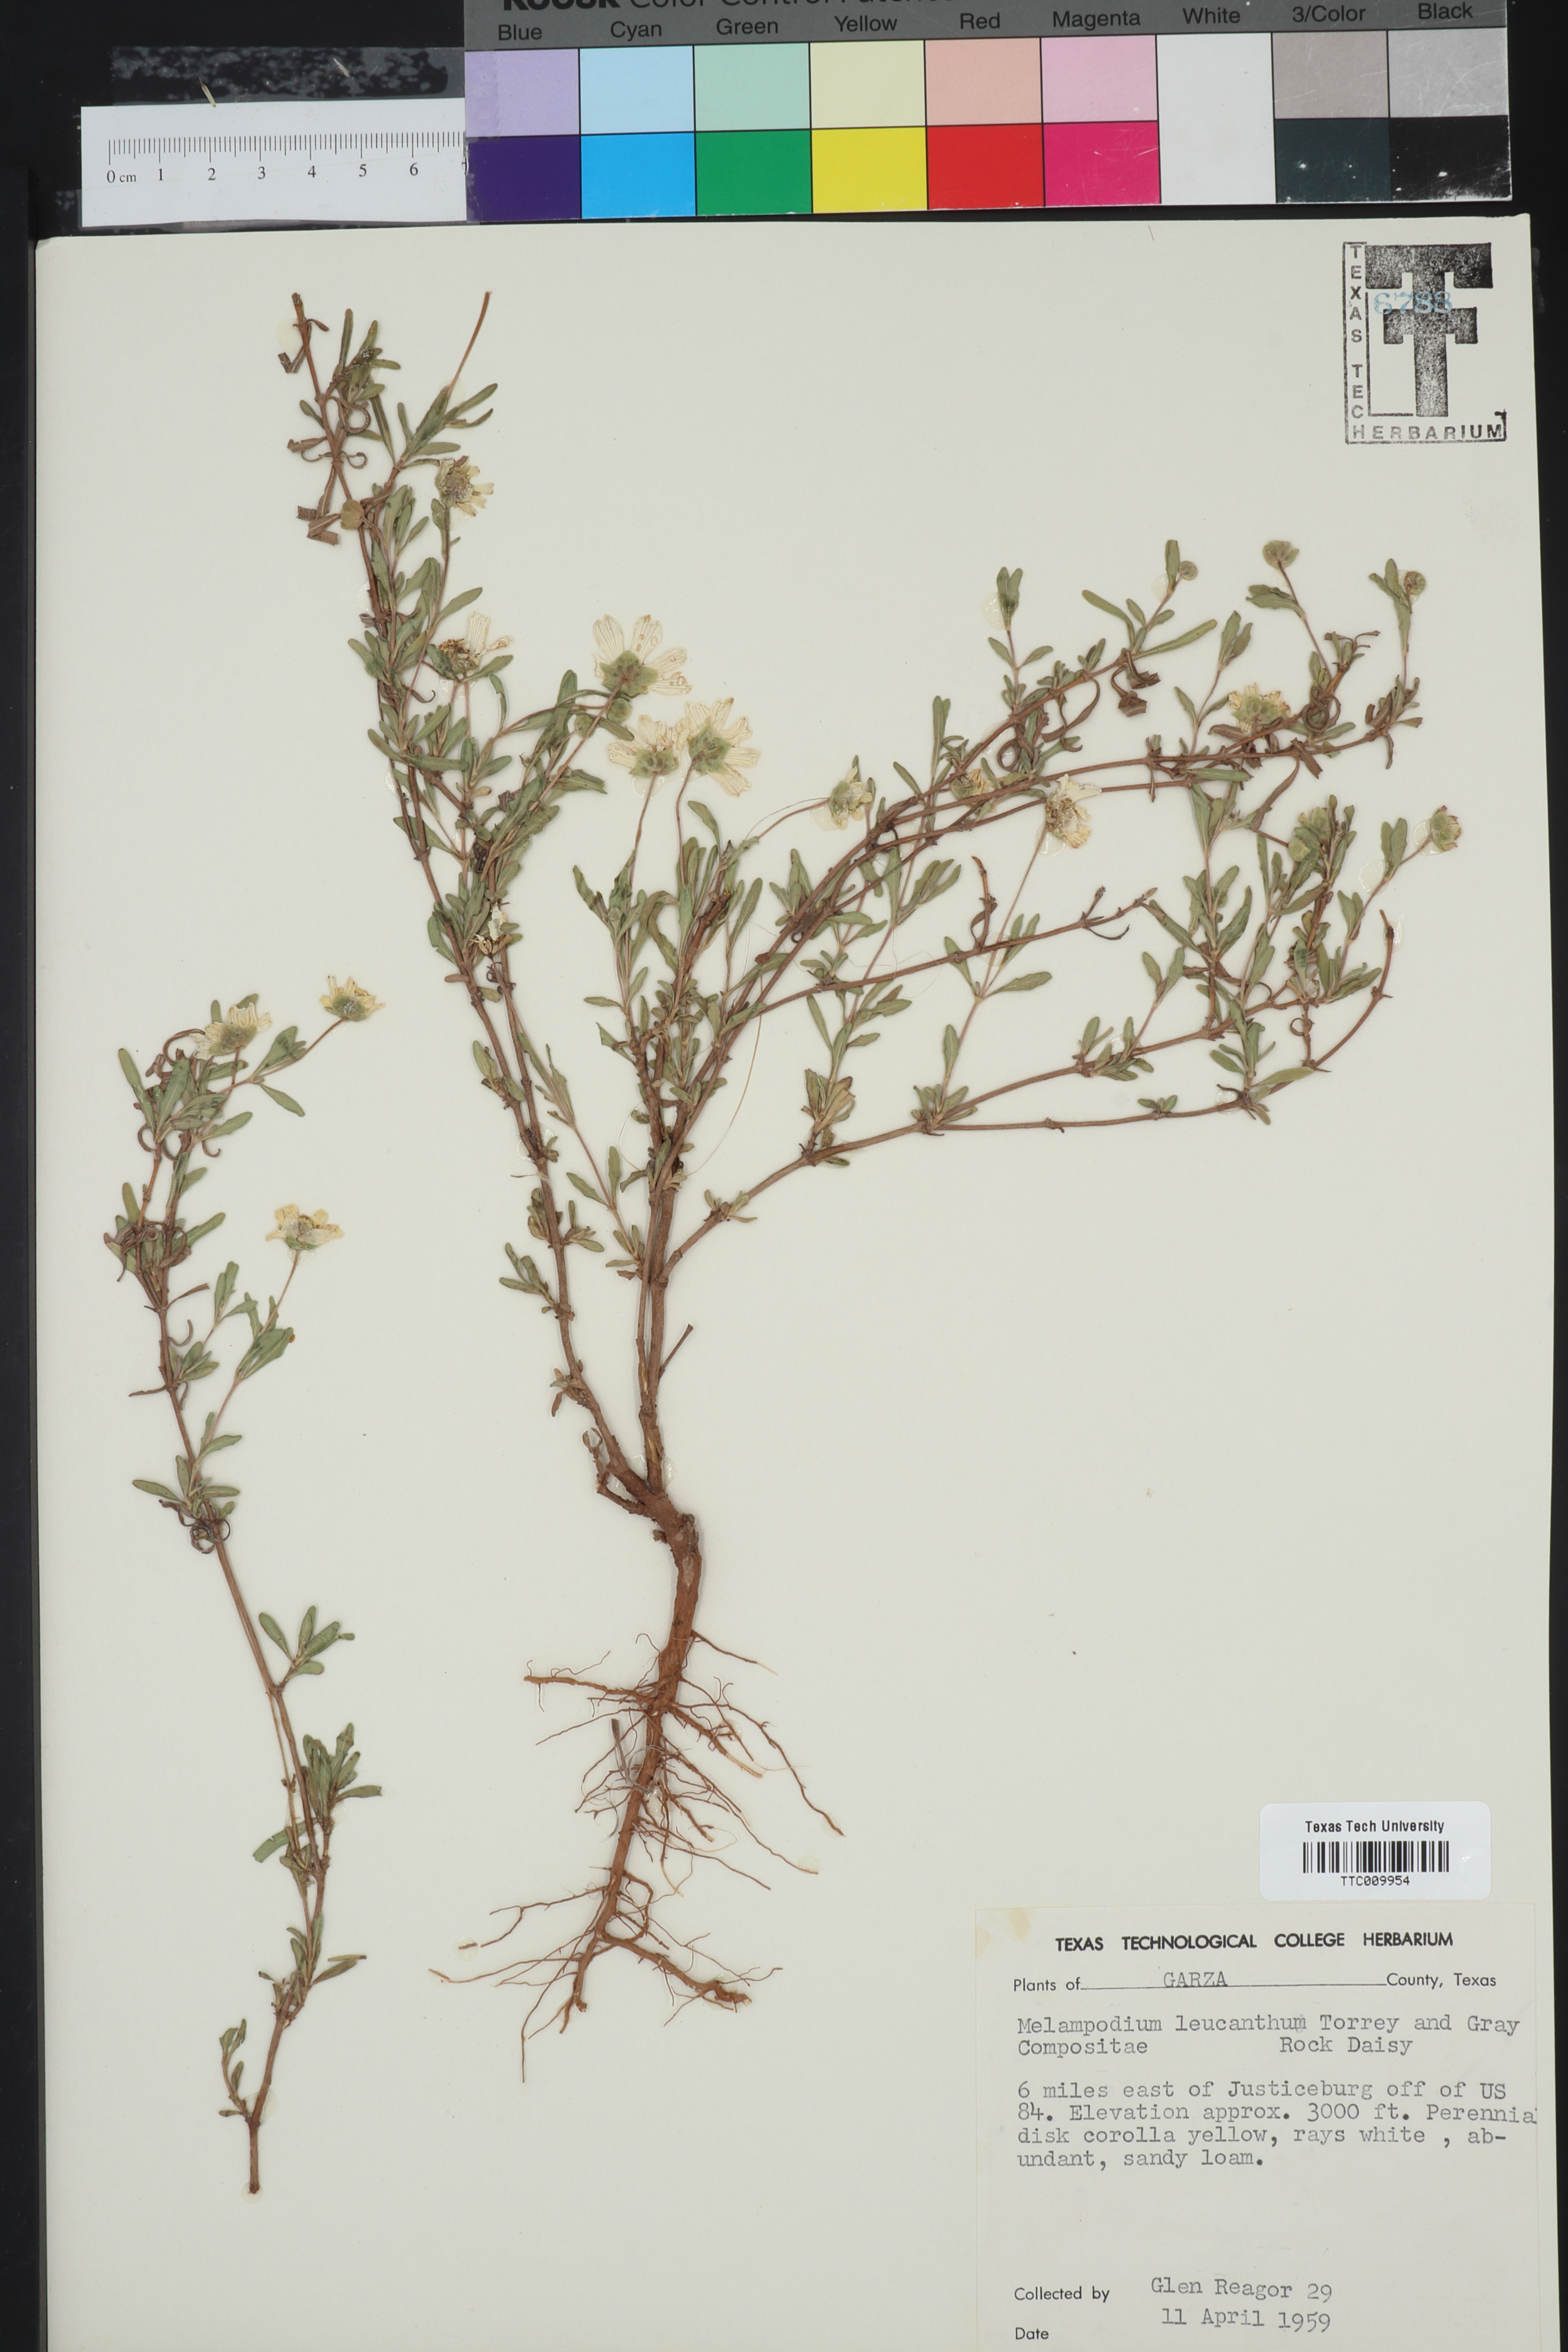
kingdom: Plantae
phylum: Tracheophyta
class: Magnoliopsida
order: Asterales
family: Asteraceae
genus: Melampodium
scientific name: Melampodium leucanthum
